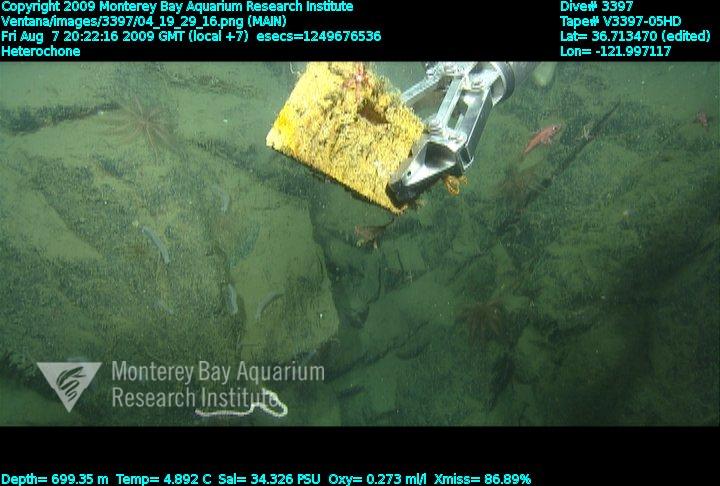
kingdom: Animalia
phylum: Porifera
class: Hexactinellida
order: Sceptrulophora
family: Aphrocallistidae
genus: Heterochone
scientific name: Heterochone
